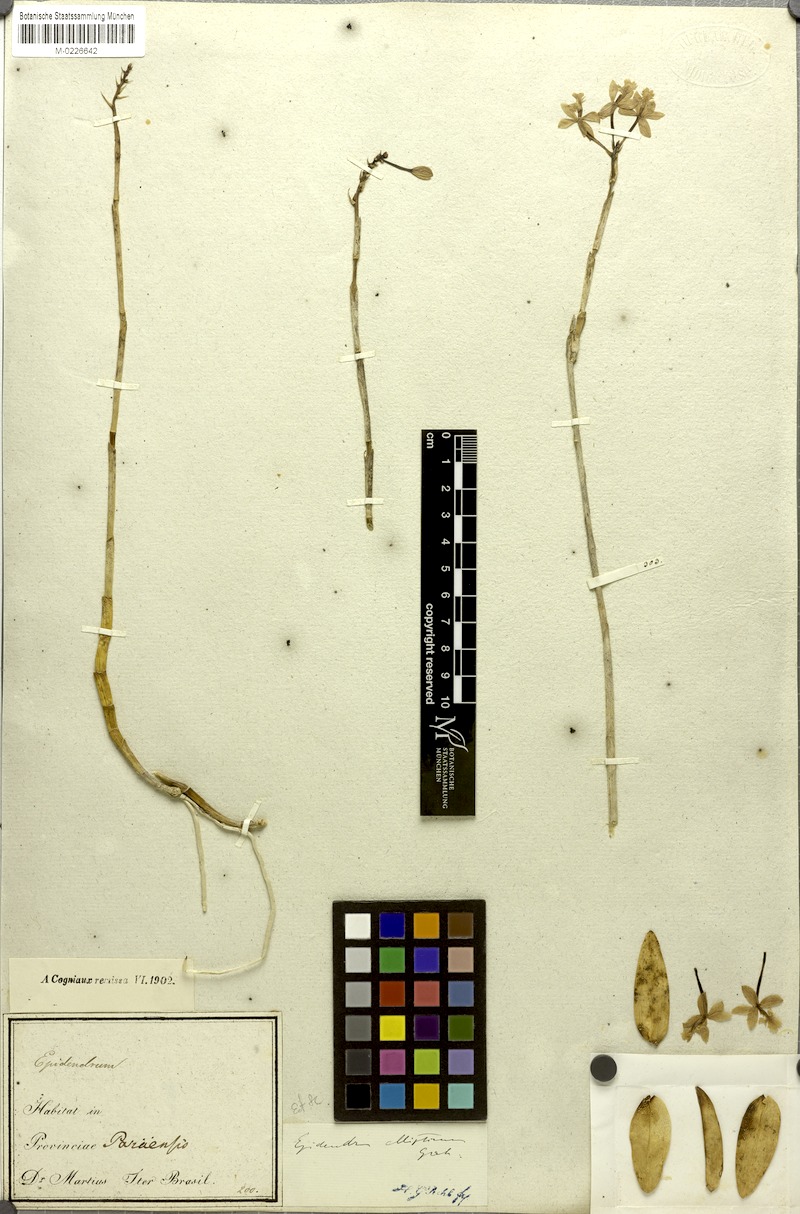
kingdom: Plantae
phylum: Tracheophyta
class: Liliopsida
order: Asparagales
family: Orchidaceae
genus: Epidendrum
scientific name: Epidendrum ellipticum
